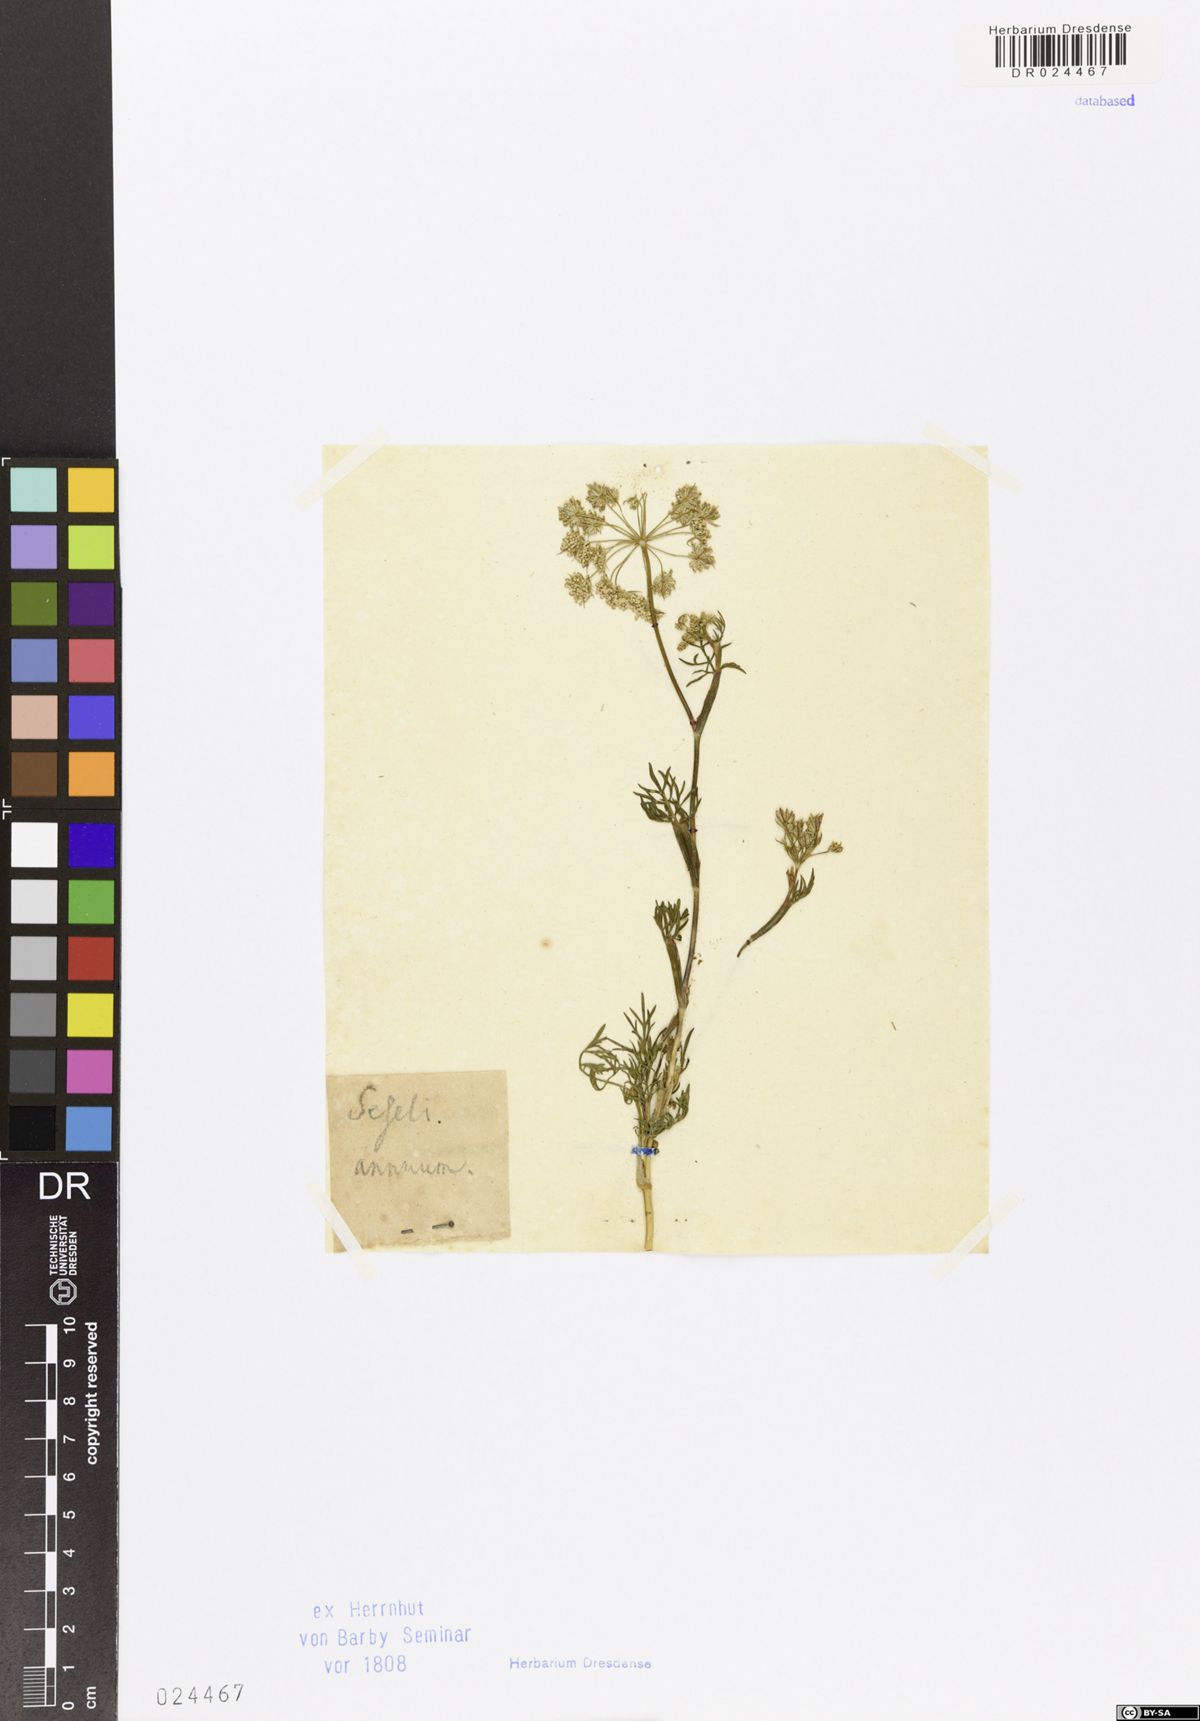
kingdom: Plantae
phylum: Tracheophyta
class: Magnoliopsida
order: Apiales
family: Apiaceae
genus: Seseli
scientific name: Seseli annuum
